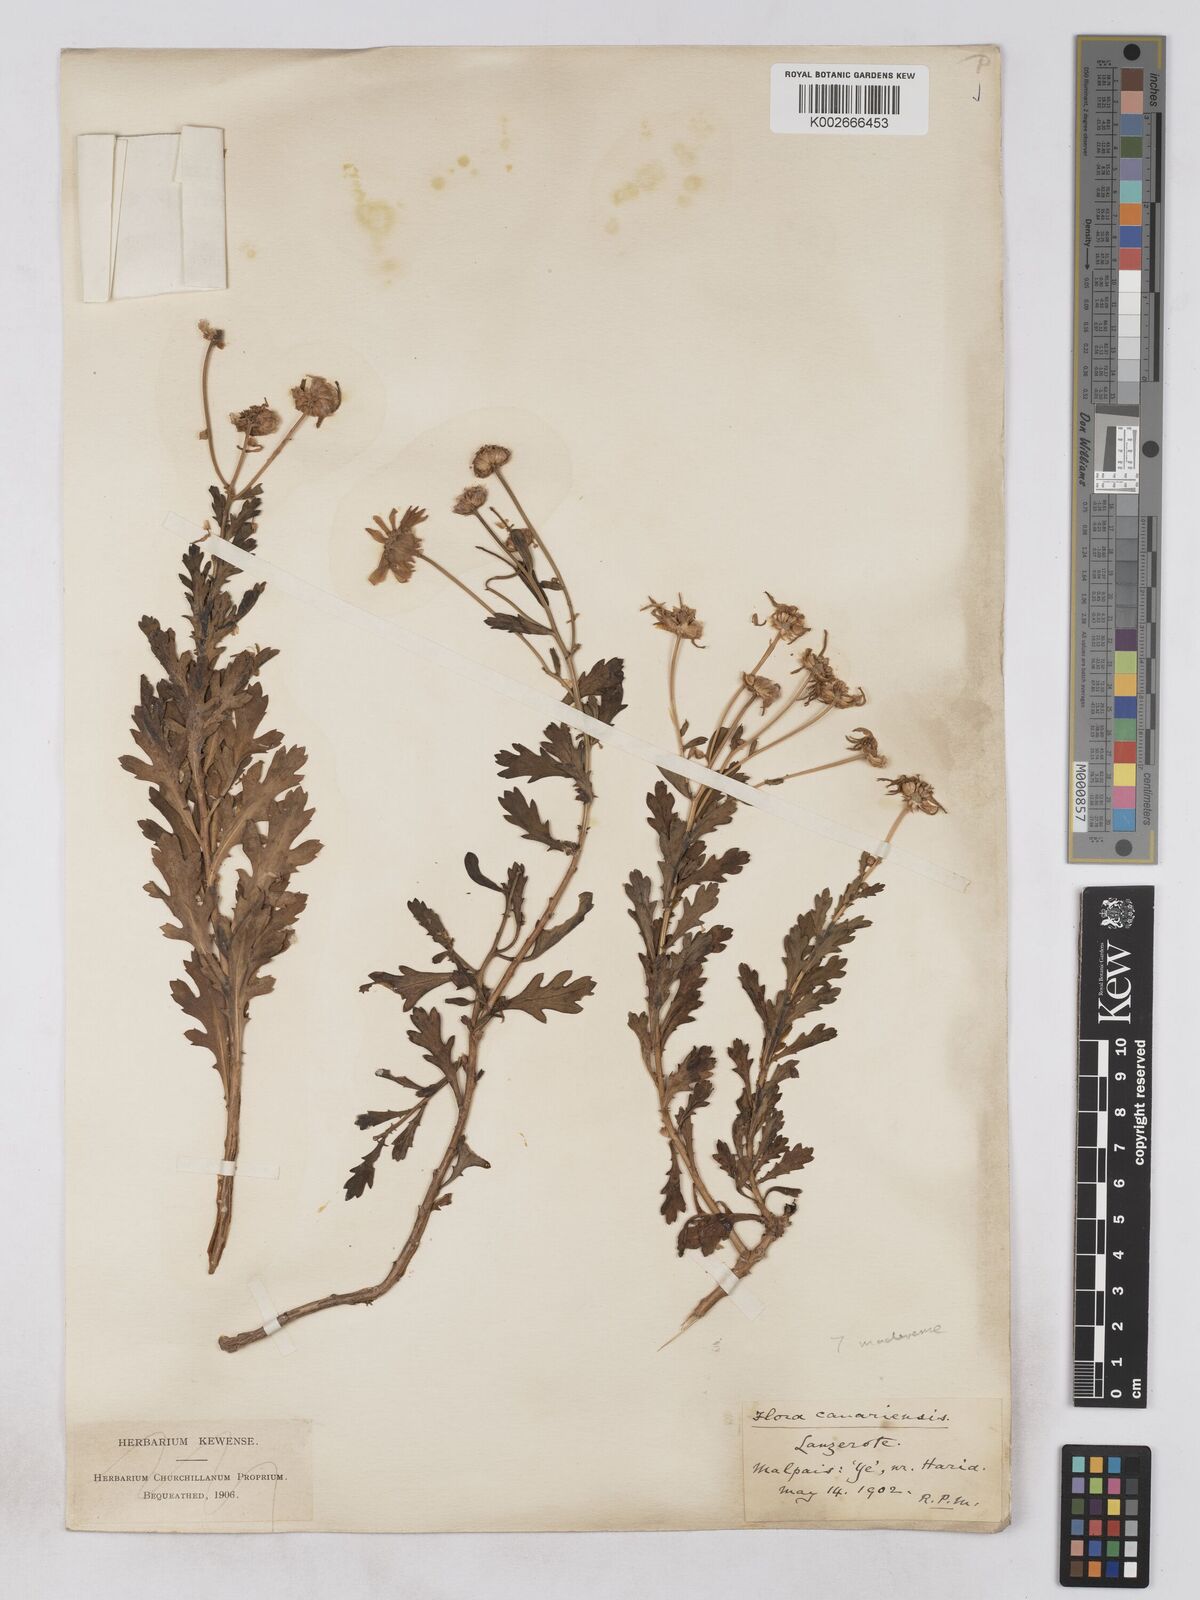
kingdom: Plantae
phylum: Tracheophyta
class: Magnoliopsida
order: Asterales
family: Asteraceae
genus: Argyranthemum
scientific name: Argyranthemum maderense
